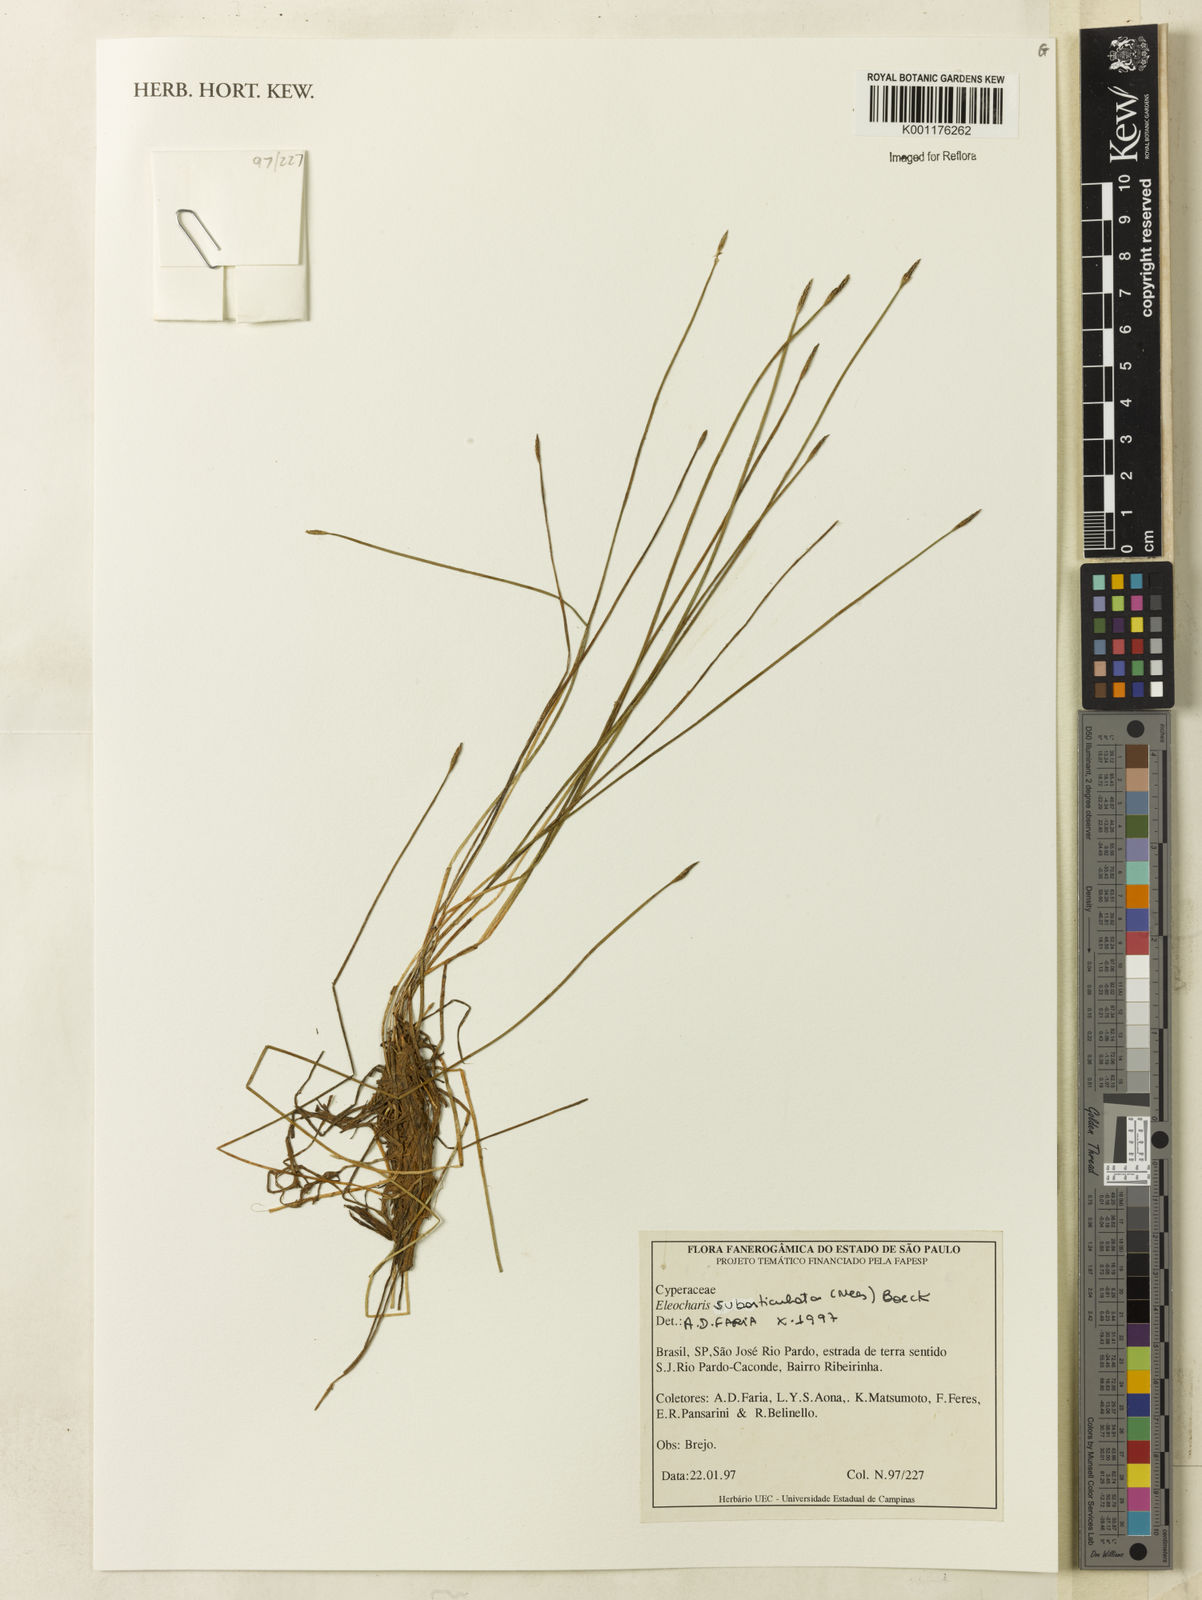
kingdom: Plantae
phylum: Tracheophyta
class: Liliopsida
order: Poales
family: Cyperaceae
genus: Eleocharis
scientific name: Eleocharis subarticulata
